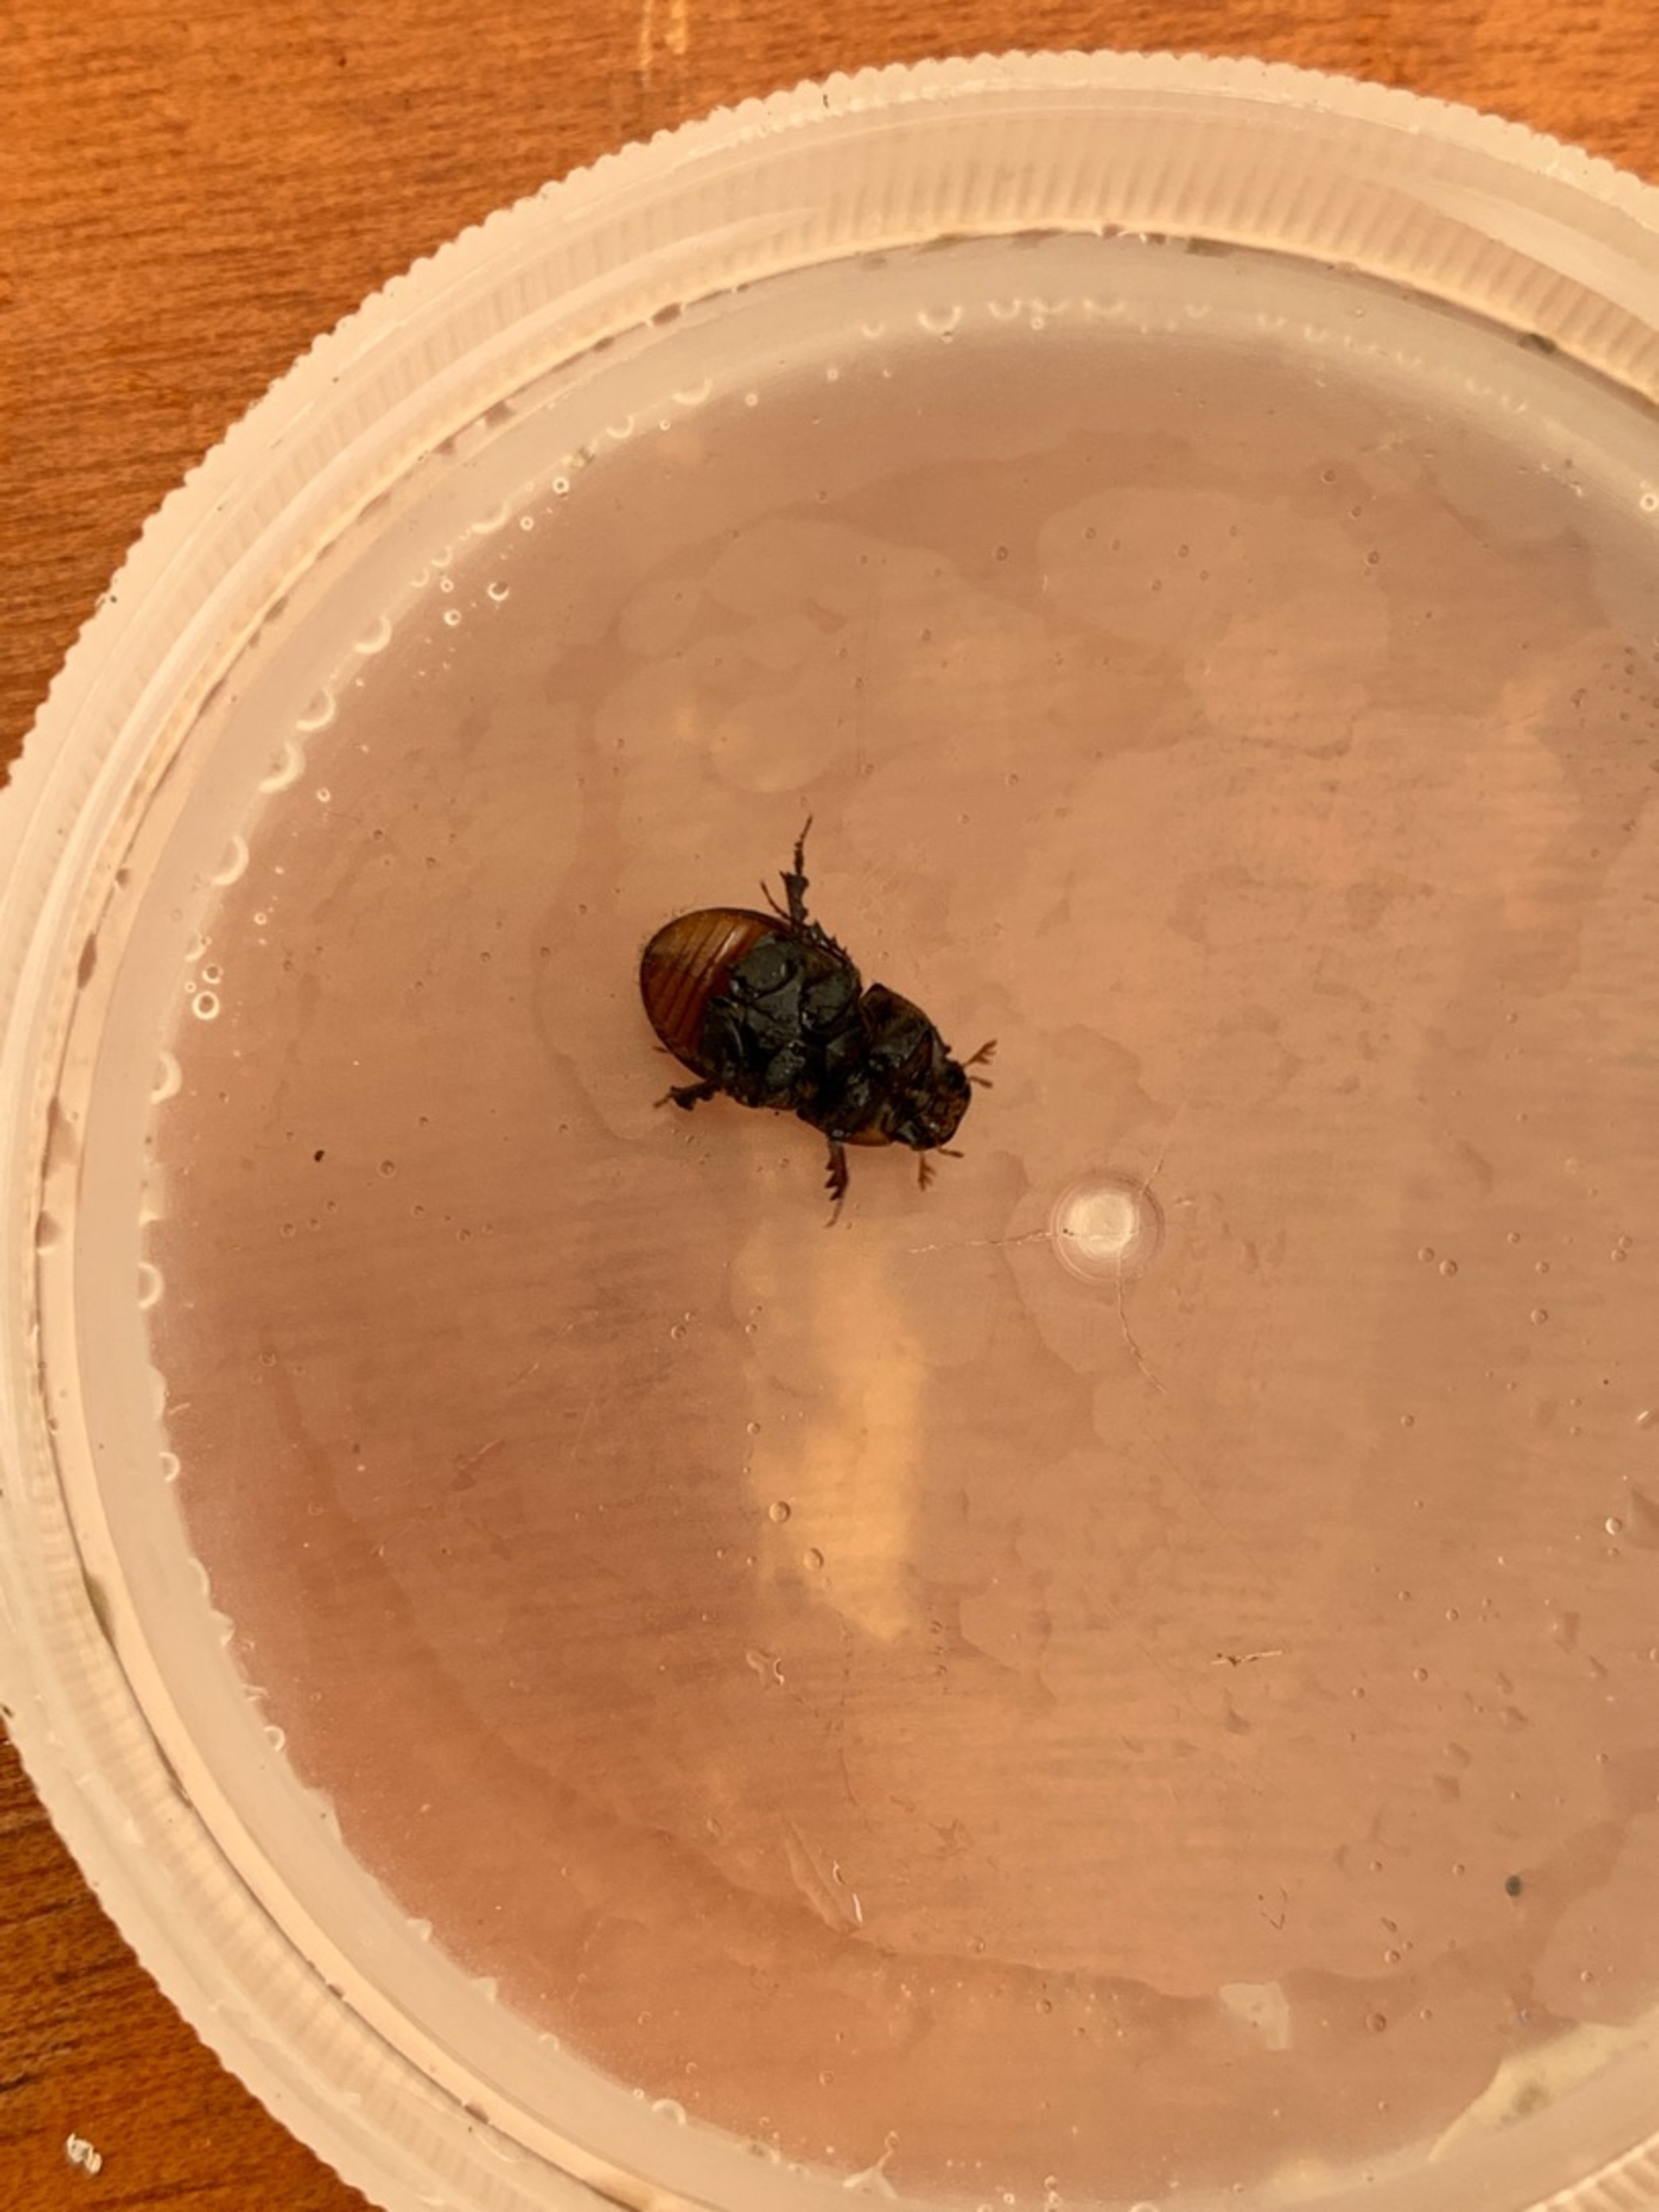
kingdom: Animalia
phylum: Arthropoda
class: Insecta
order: Coleoptera
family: Scarabaeidae
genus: Rhodaphodius
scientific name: Rhodaphodius foetens
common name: Rødbuget møgbille
